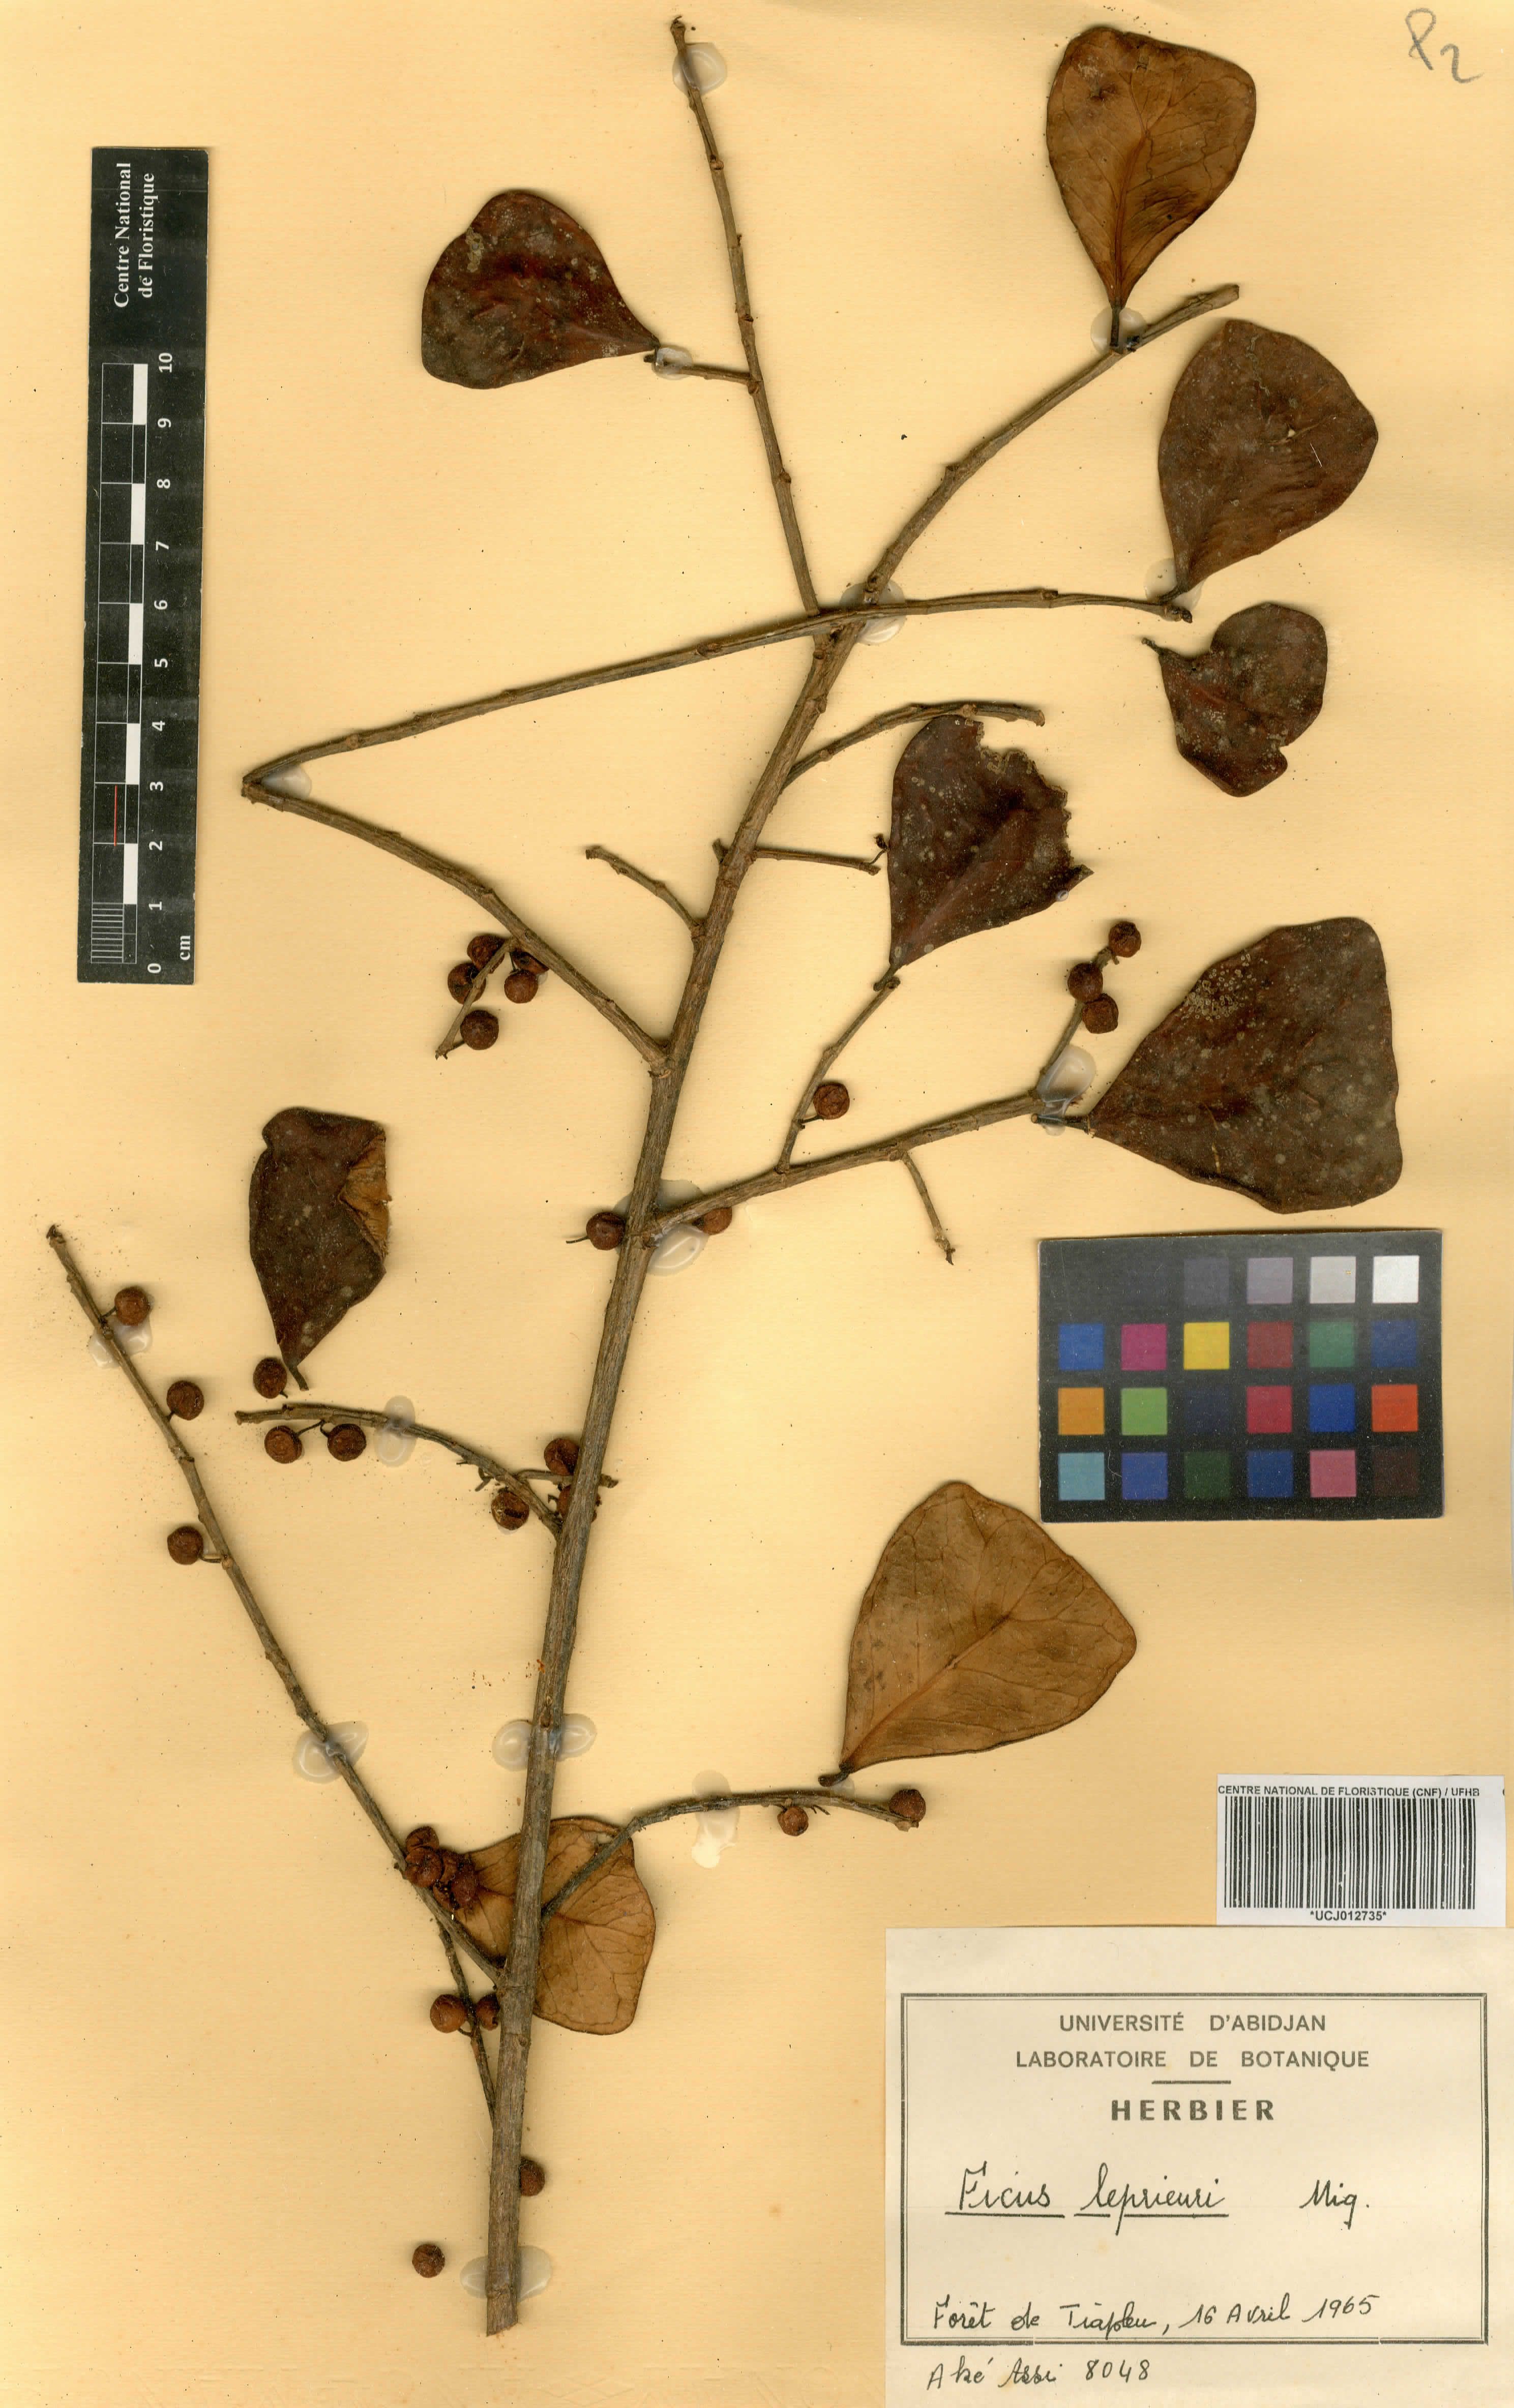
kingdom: Plantae
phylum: Tracheophyta
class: Magnoliopsida
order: Rosales
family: Moraceae
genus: Ficus
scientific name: Ficus natalensis
